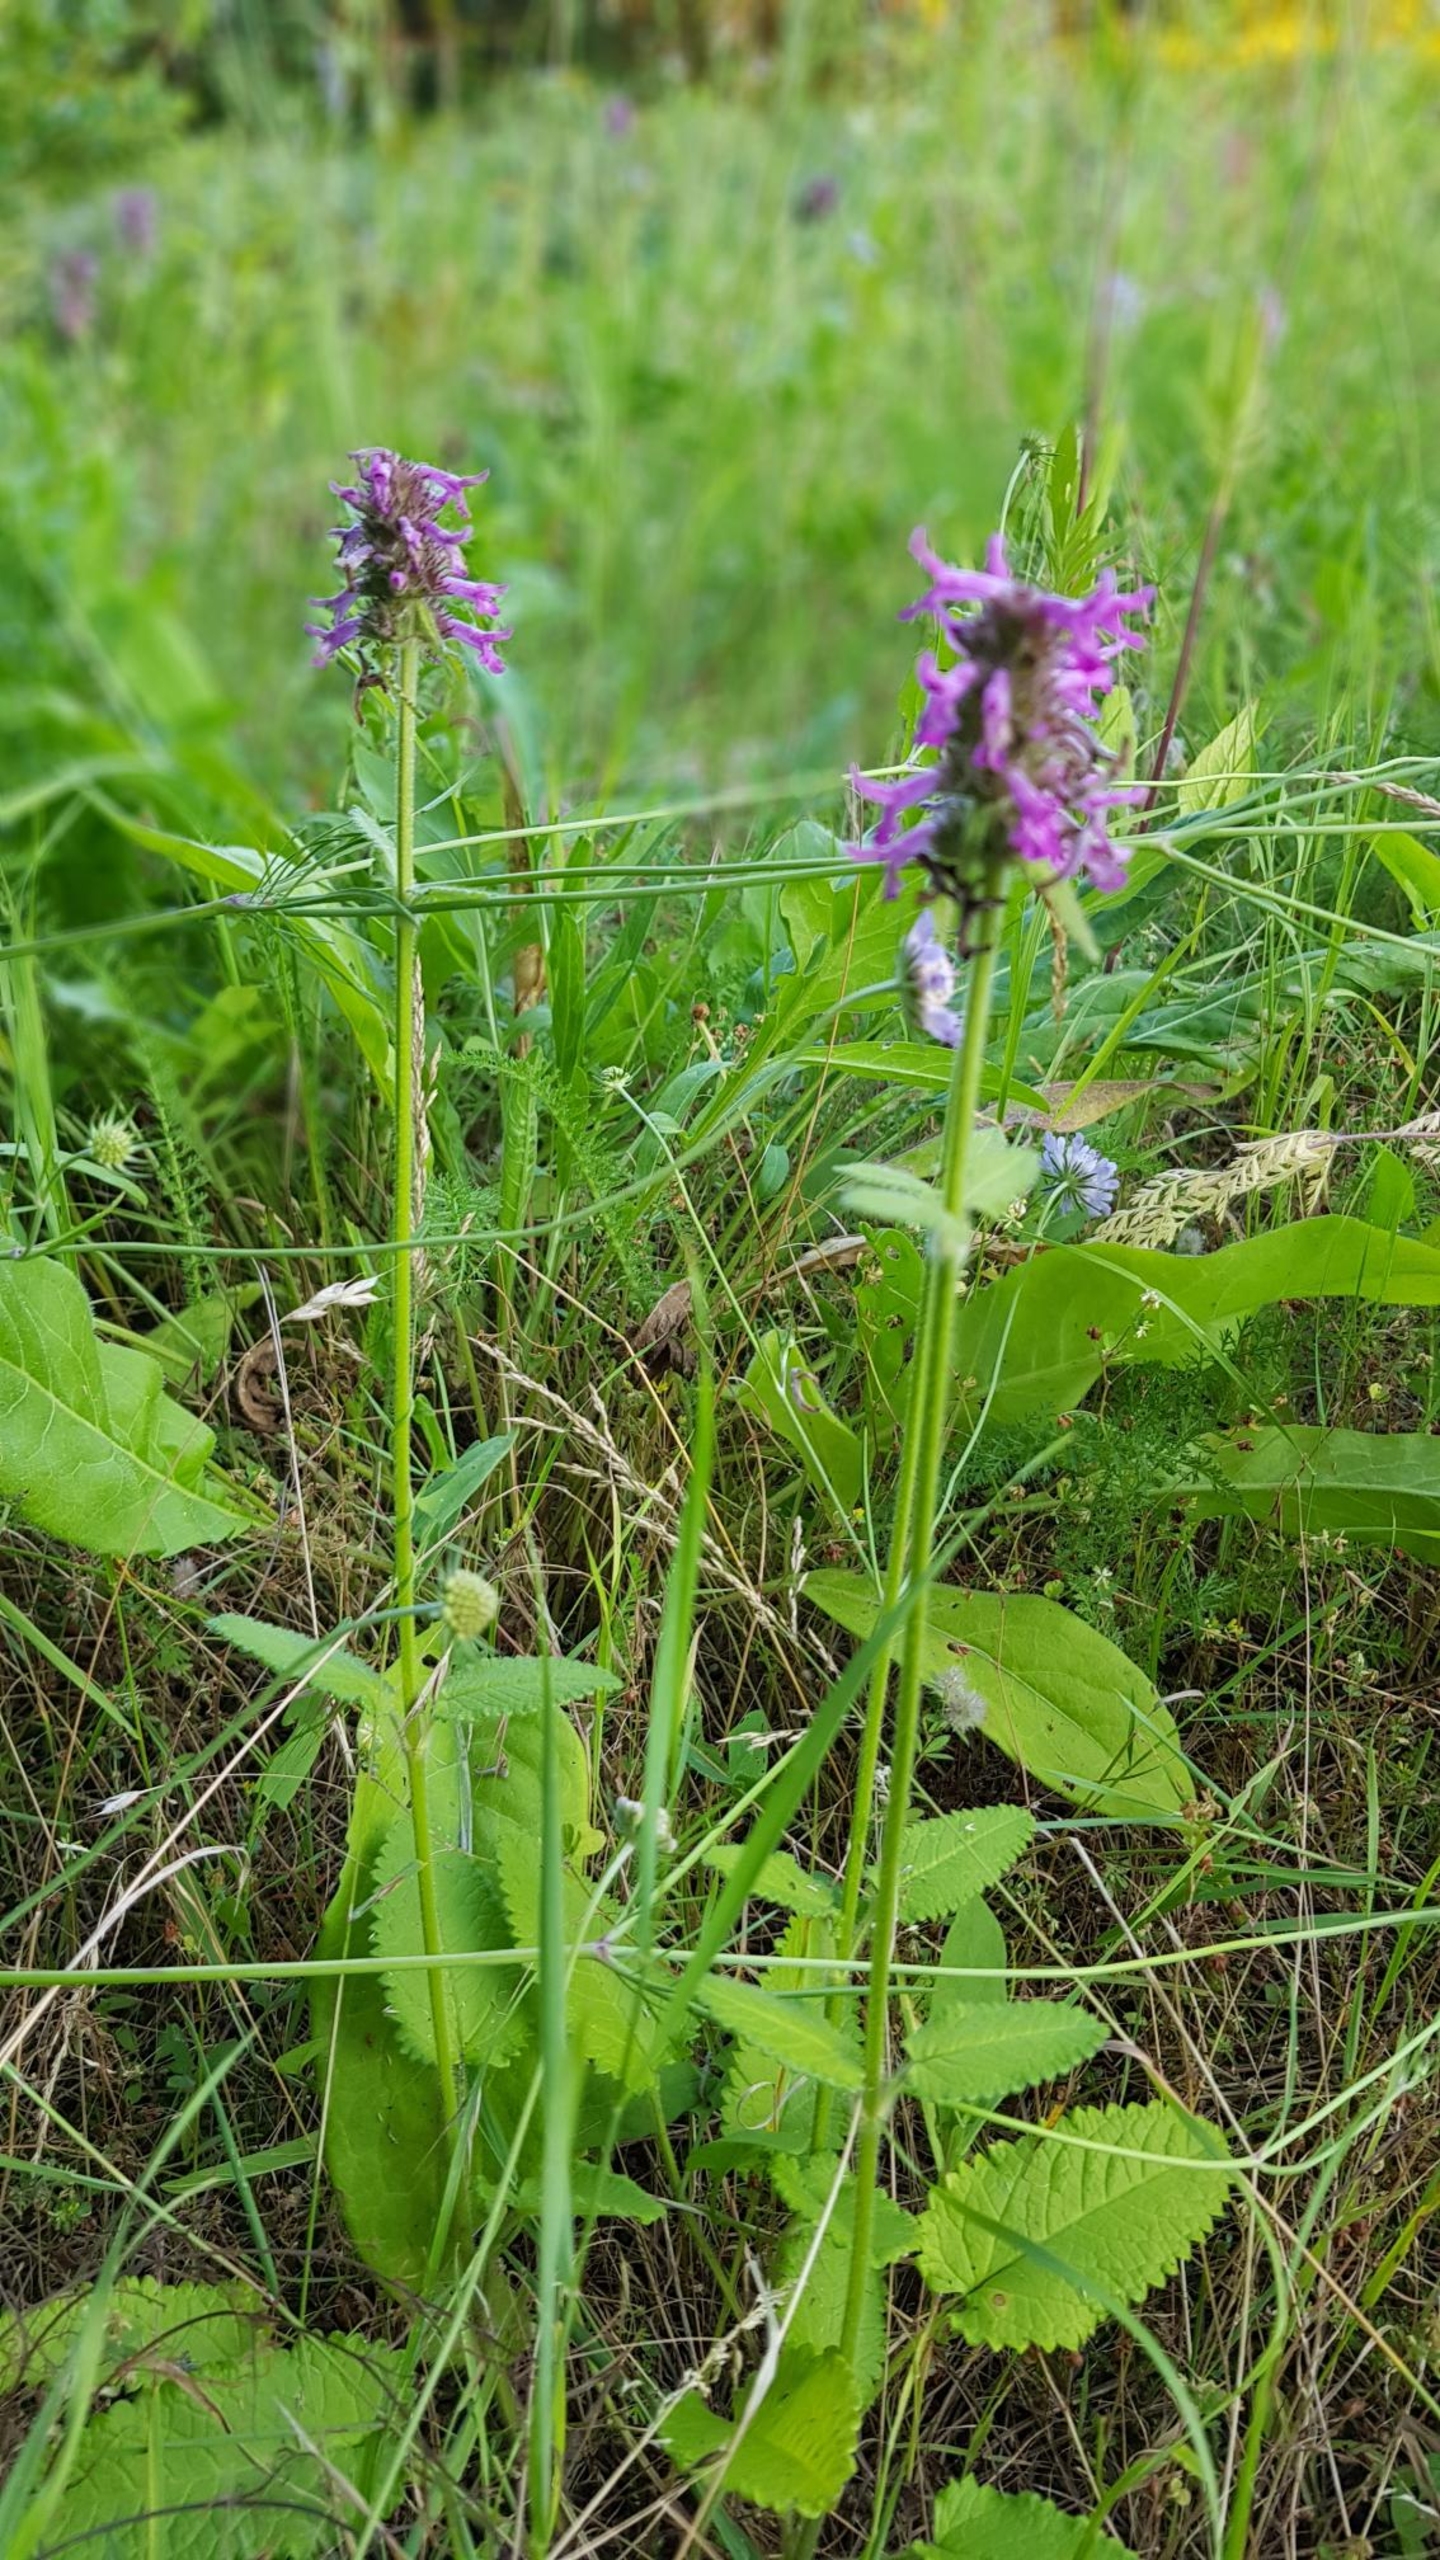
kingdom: Plantae
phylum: Tracheophyta
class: Magnoliopsida
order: Lamiales
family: Lamiaceae
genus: Betonica
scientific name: Betonica officinalis
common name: Betonie
